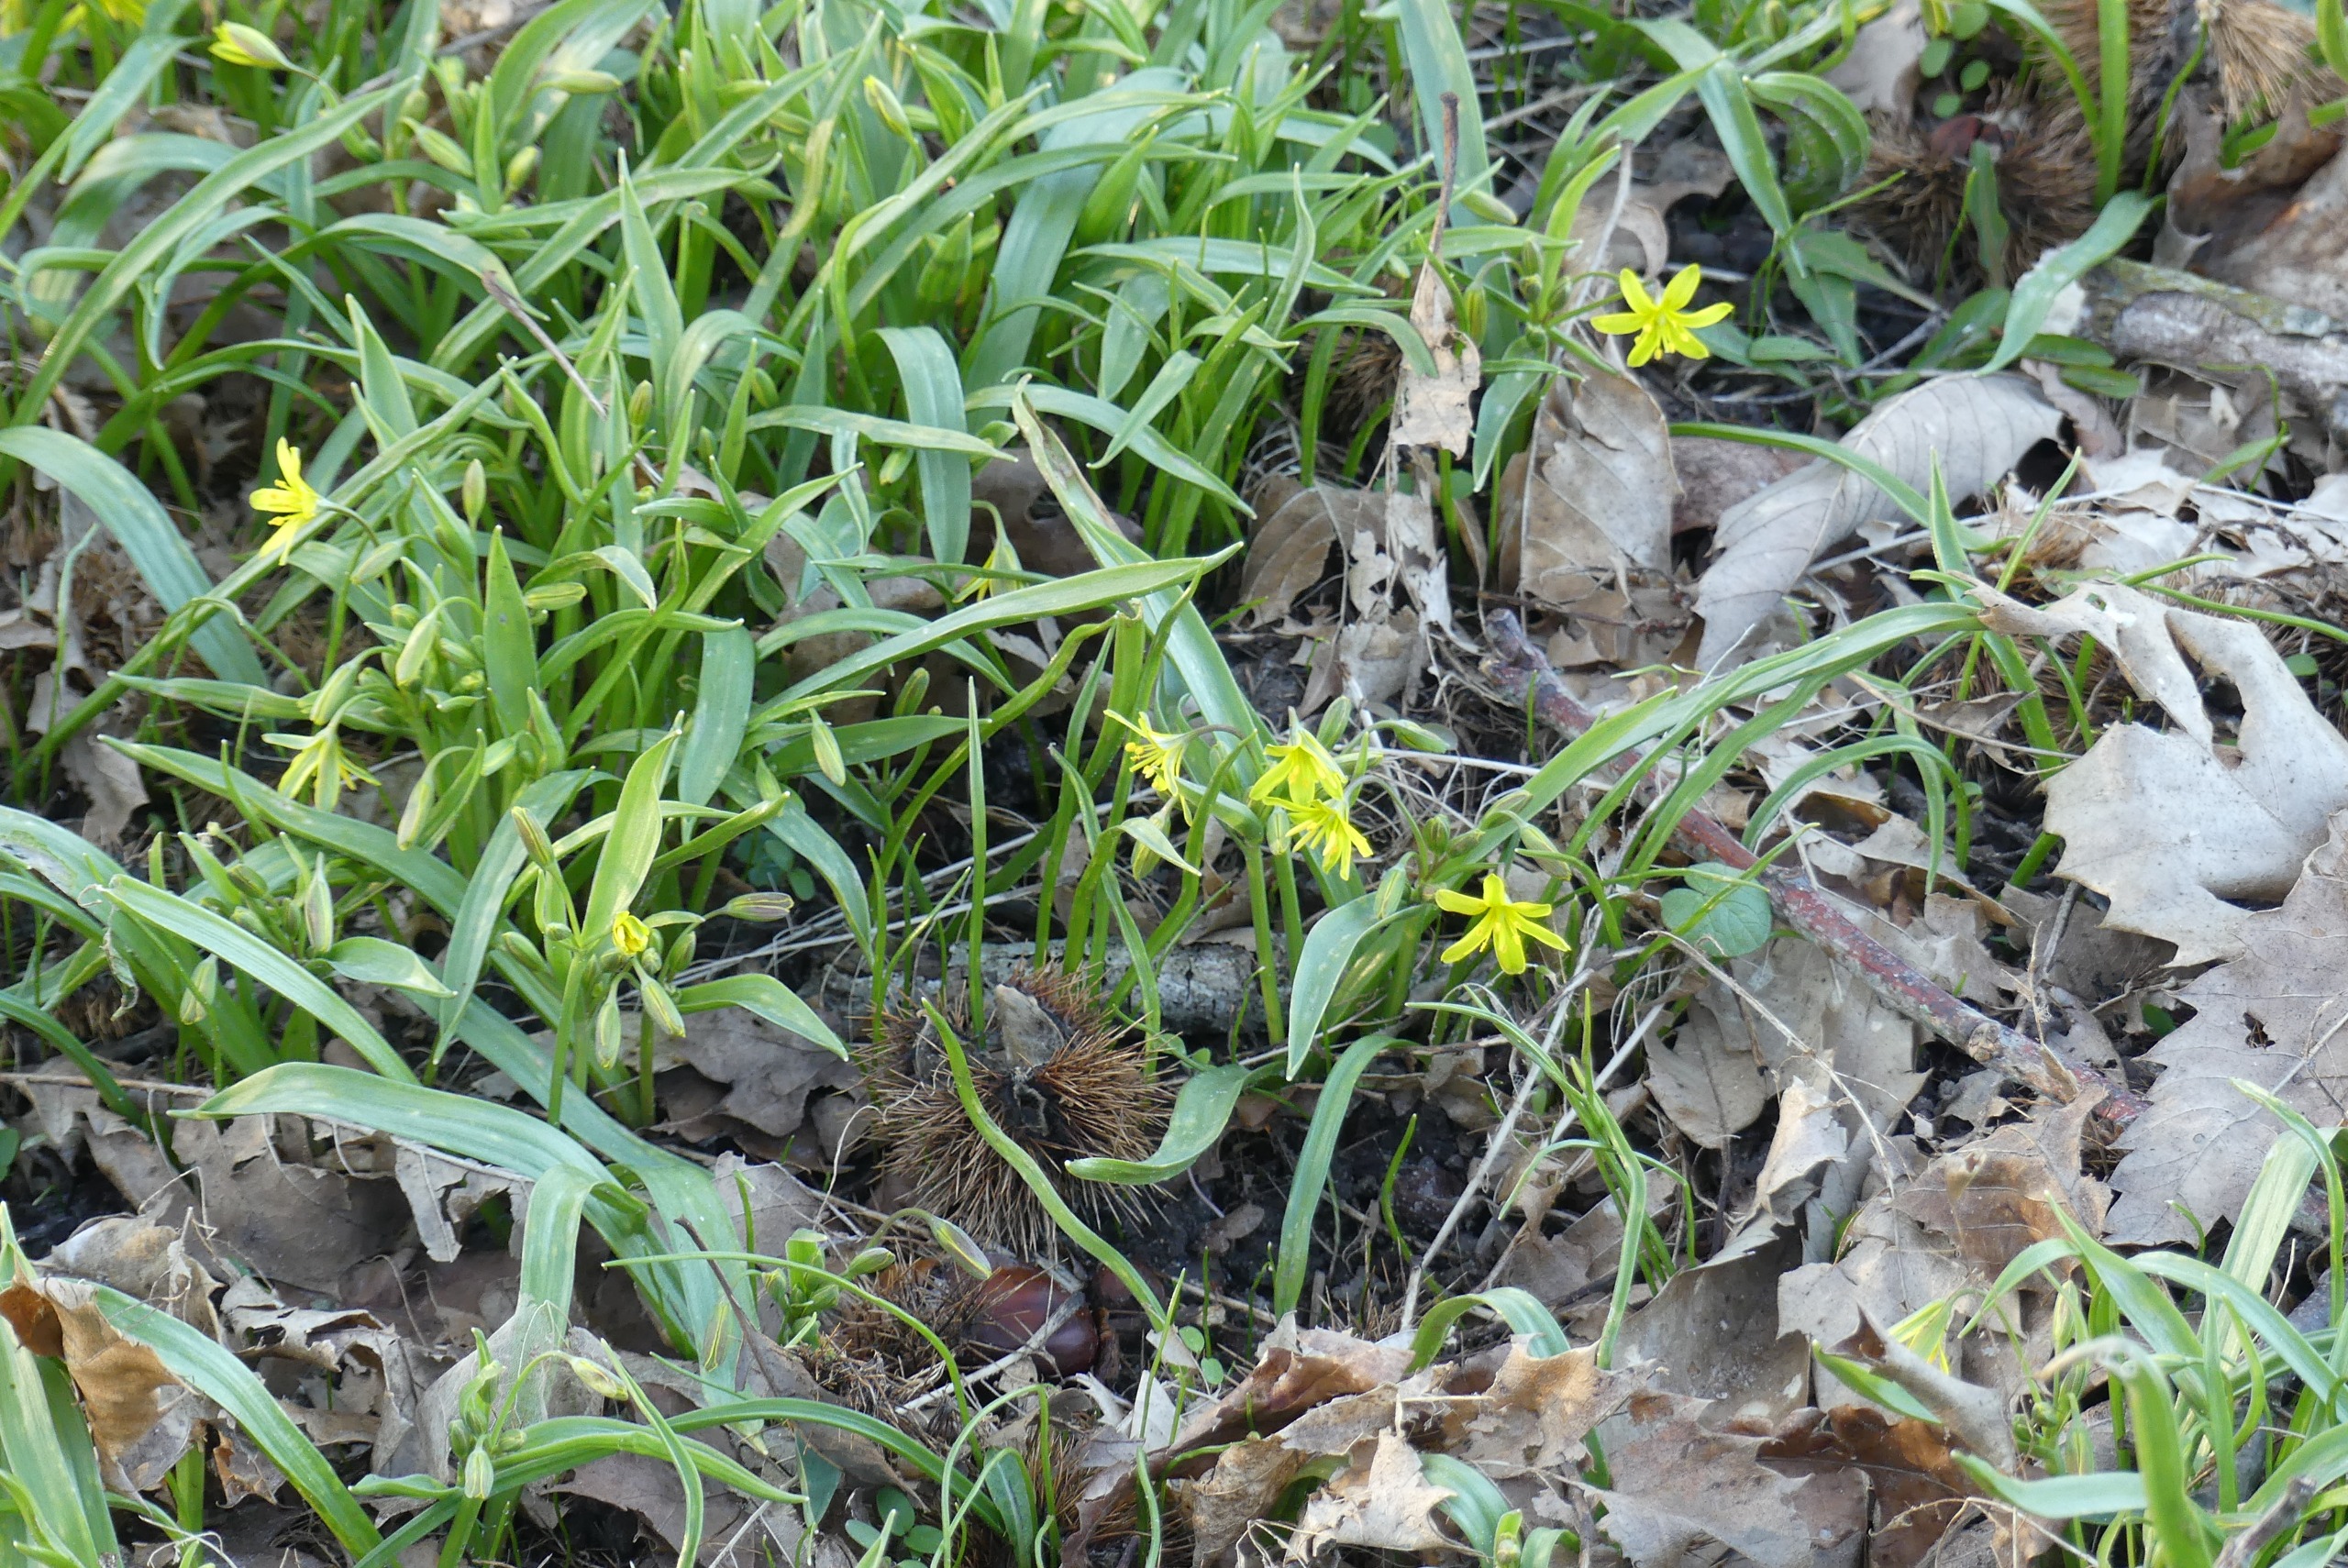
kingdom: Plantae
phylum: Tracheophyta
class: Liliopsida
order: Liliales
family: Liliaceae
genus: Gagea
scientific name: Gagea lutea
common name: Almindelig guldstjerne
